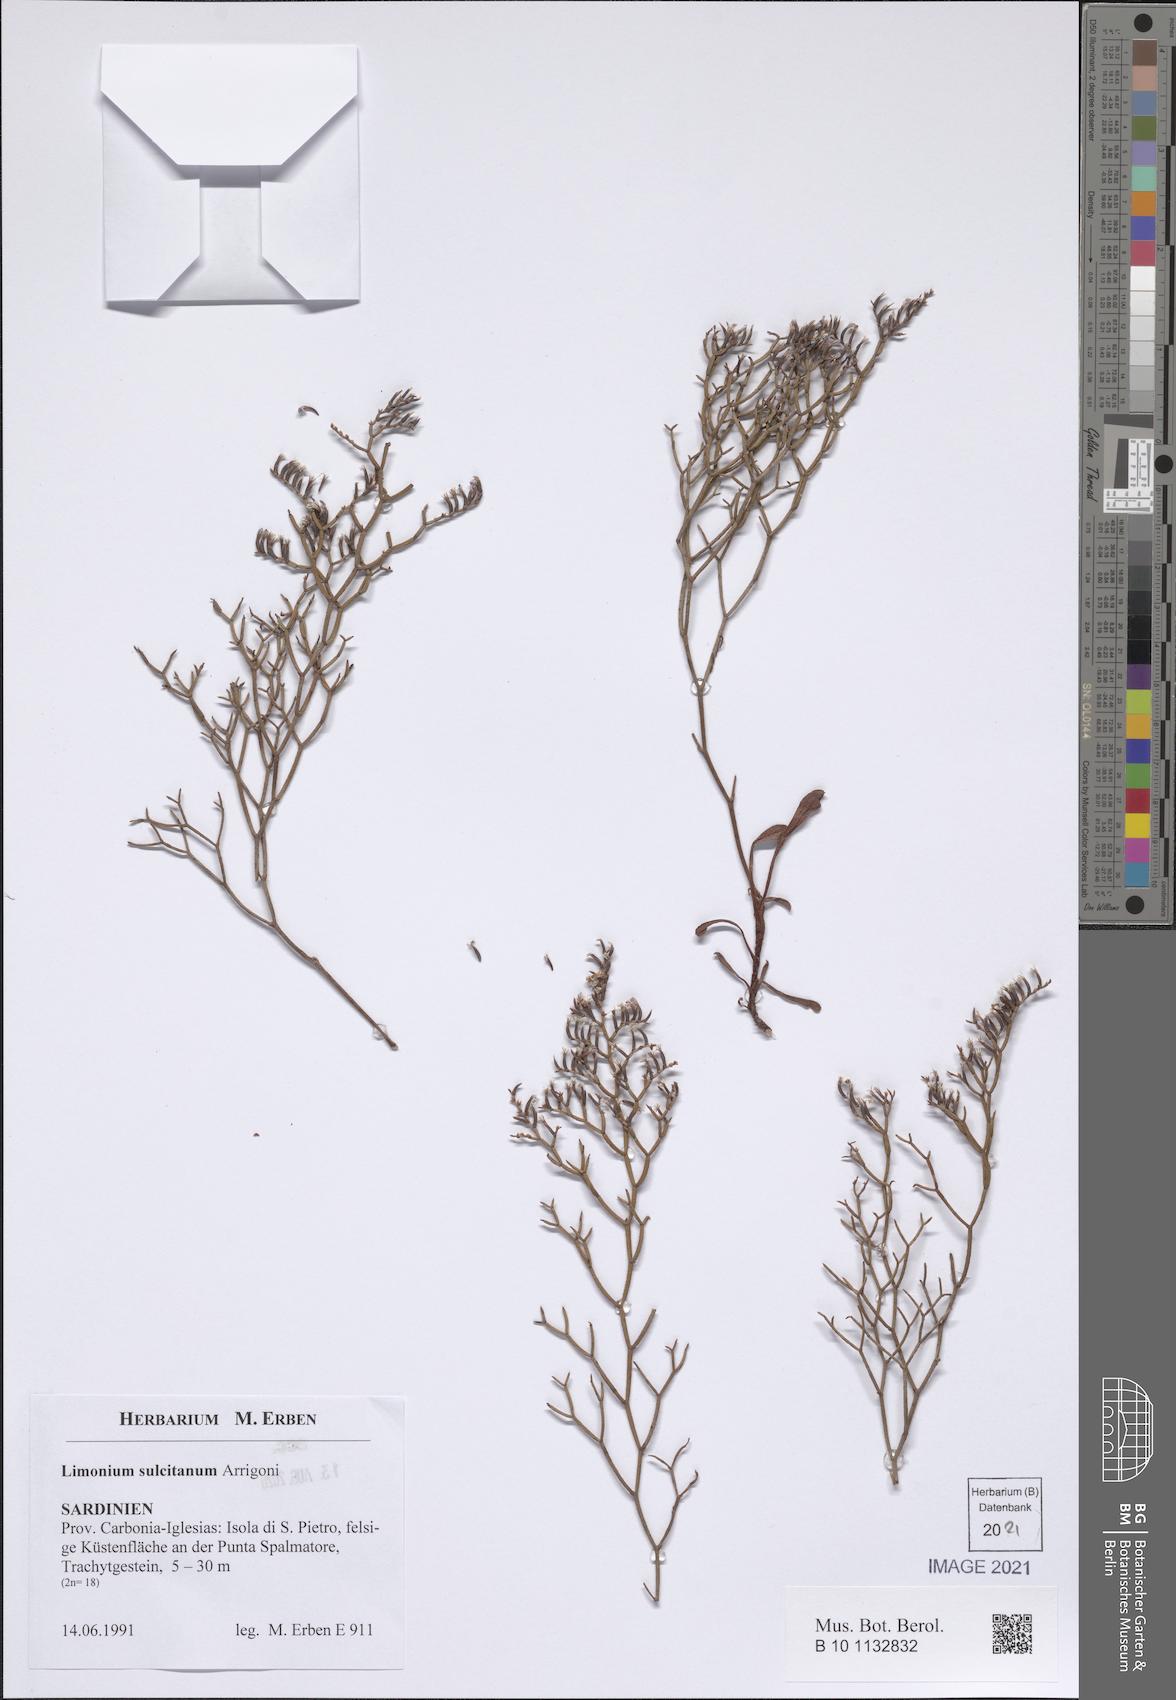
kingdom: Plantae
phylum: Tracheophyta
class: Magnoliopsida
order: Caryophyllales
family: Plumbaginaceae
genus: Limonium
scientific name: Limonium sulcitanum
